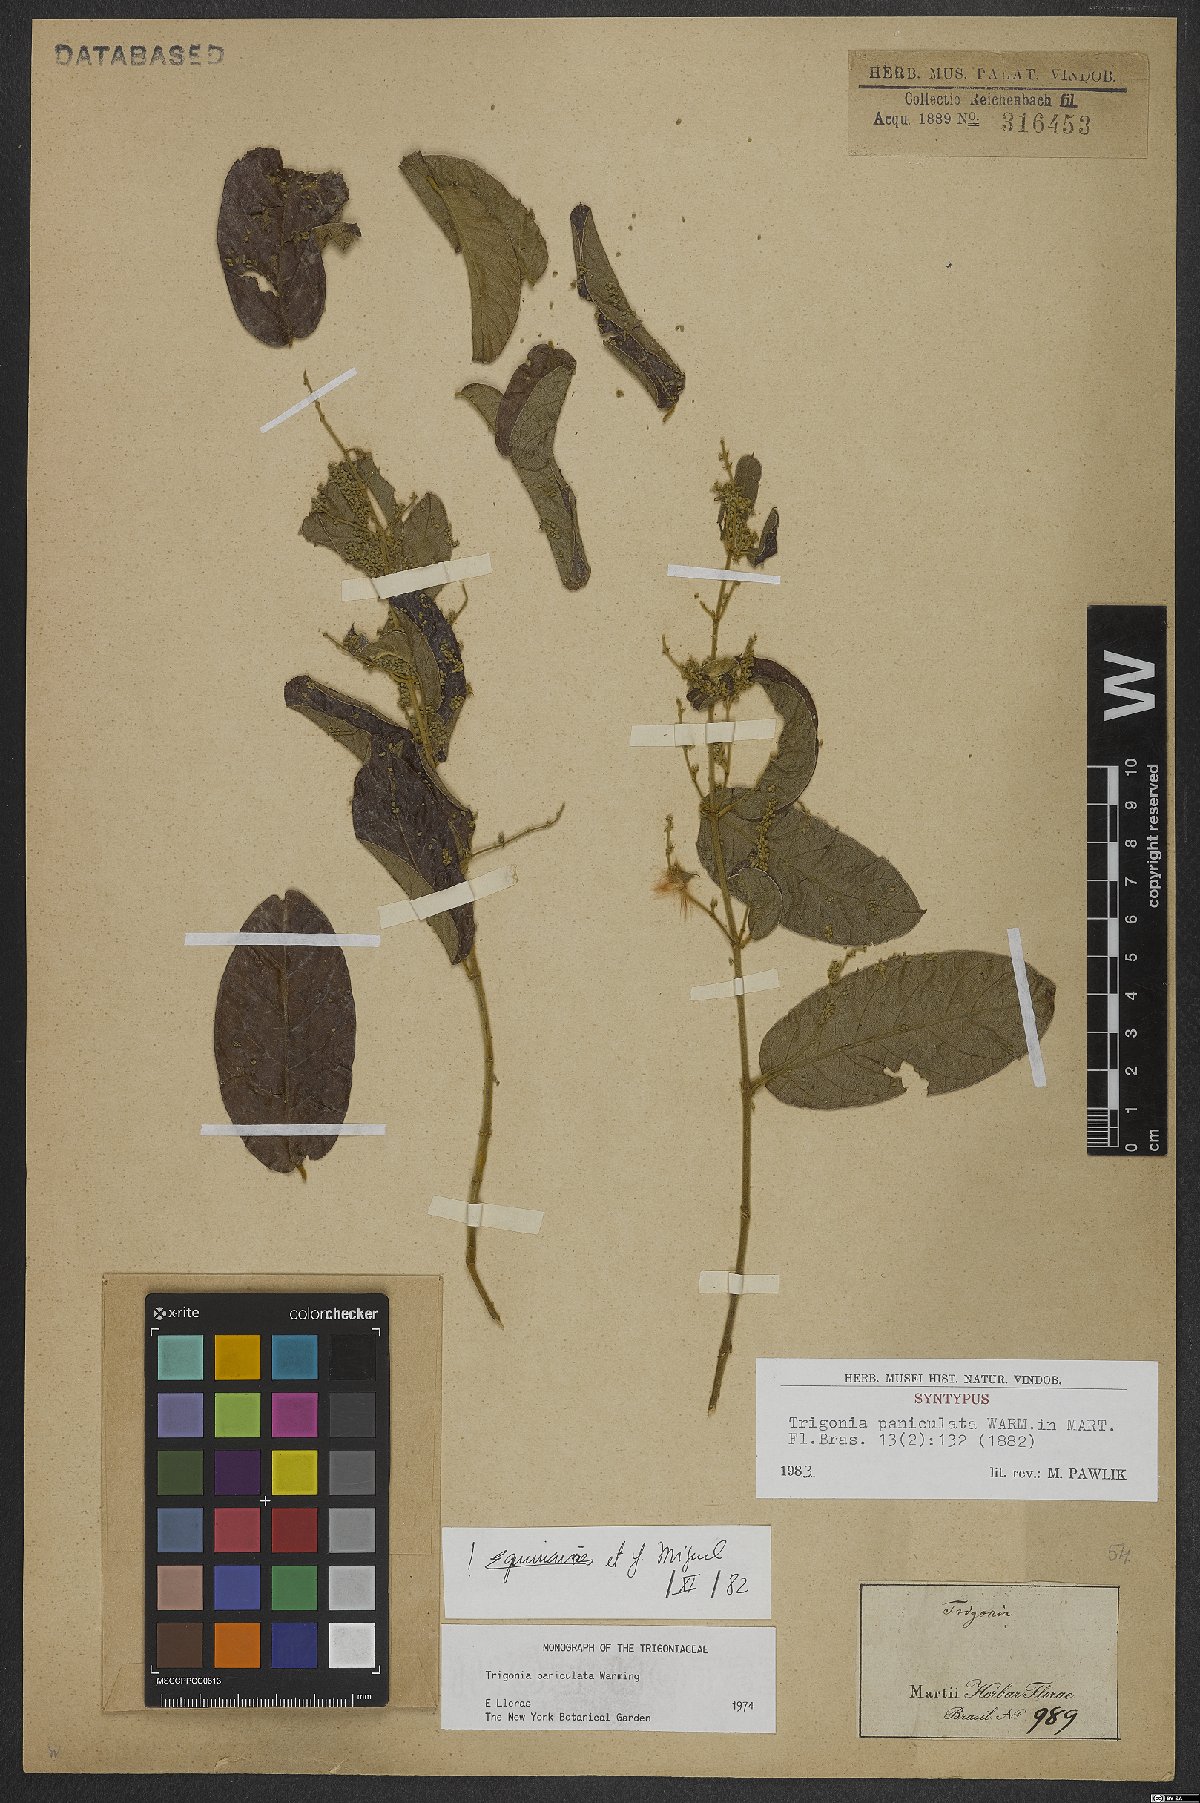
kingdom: Plantae
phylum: Tracheophyta
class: Magnoliopsida
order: Malpighiales
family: Trigoniaceae
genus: Trigonia
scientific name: Trigonia paniculata
